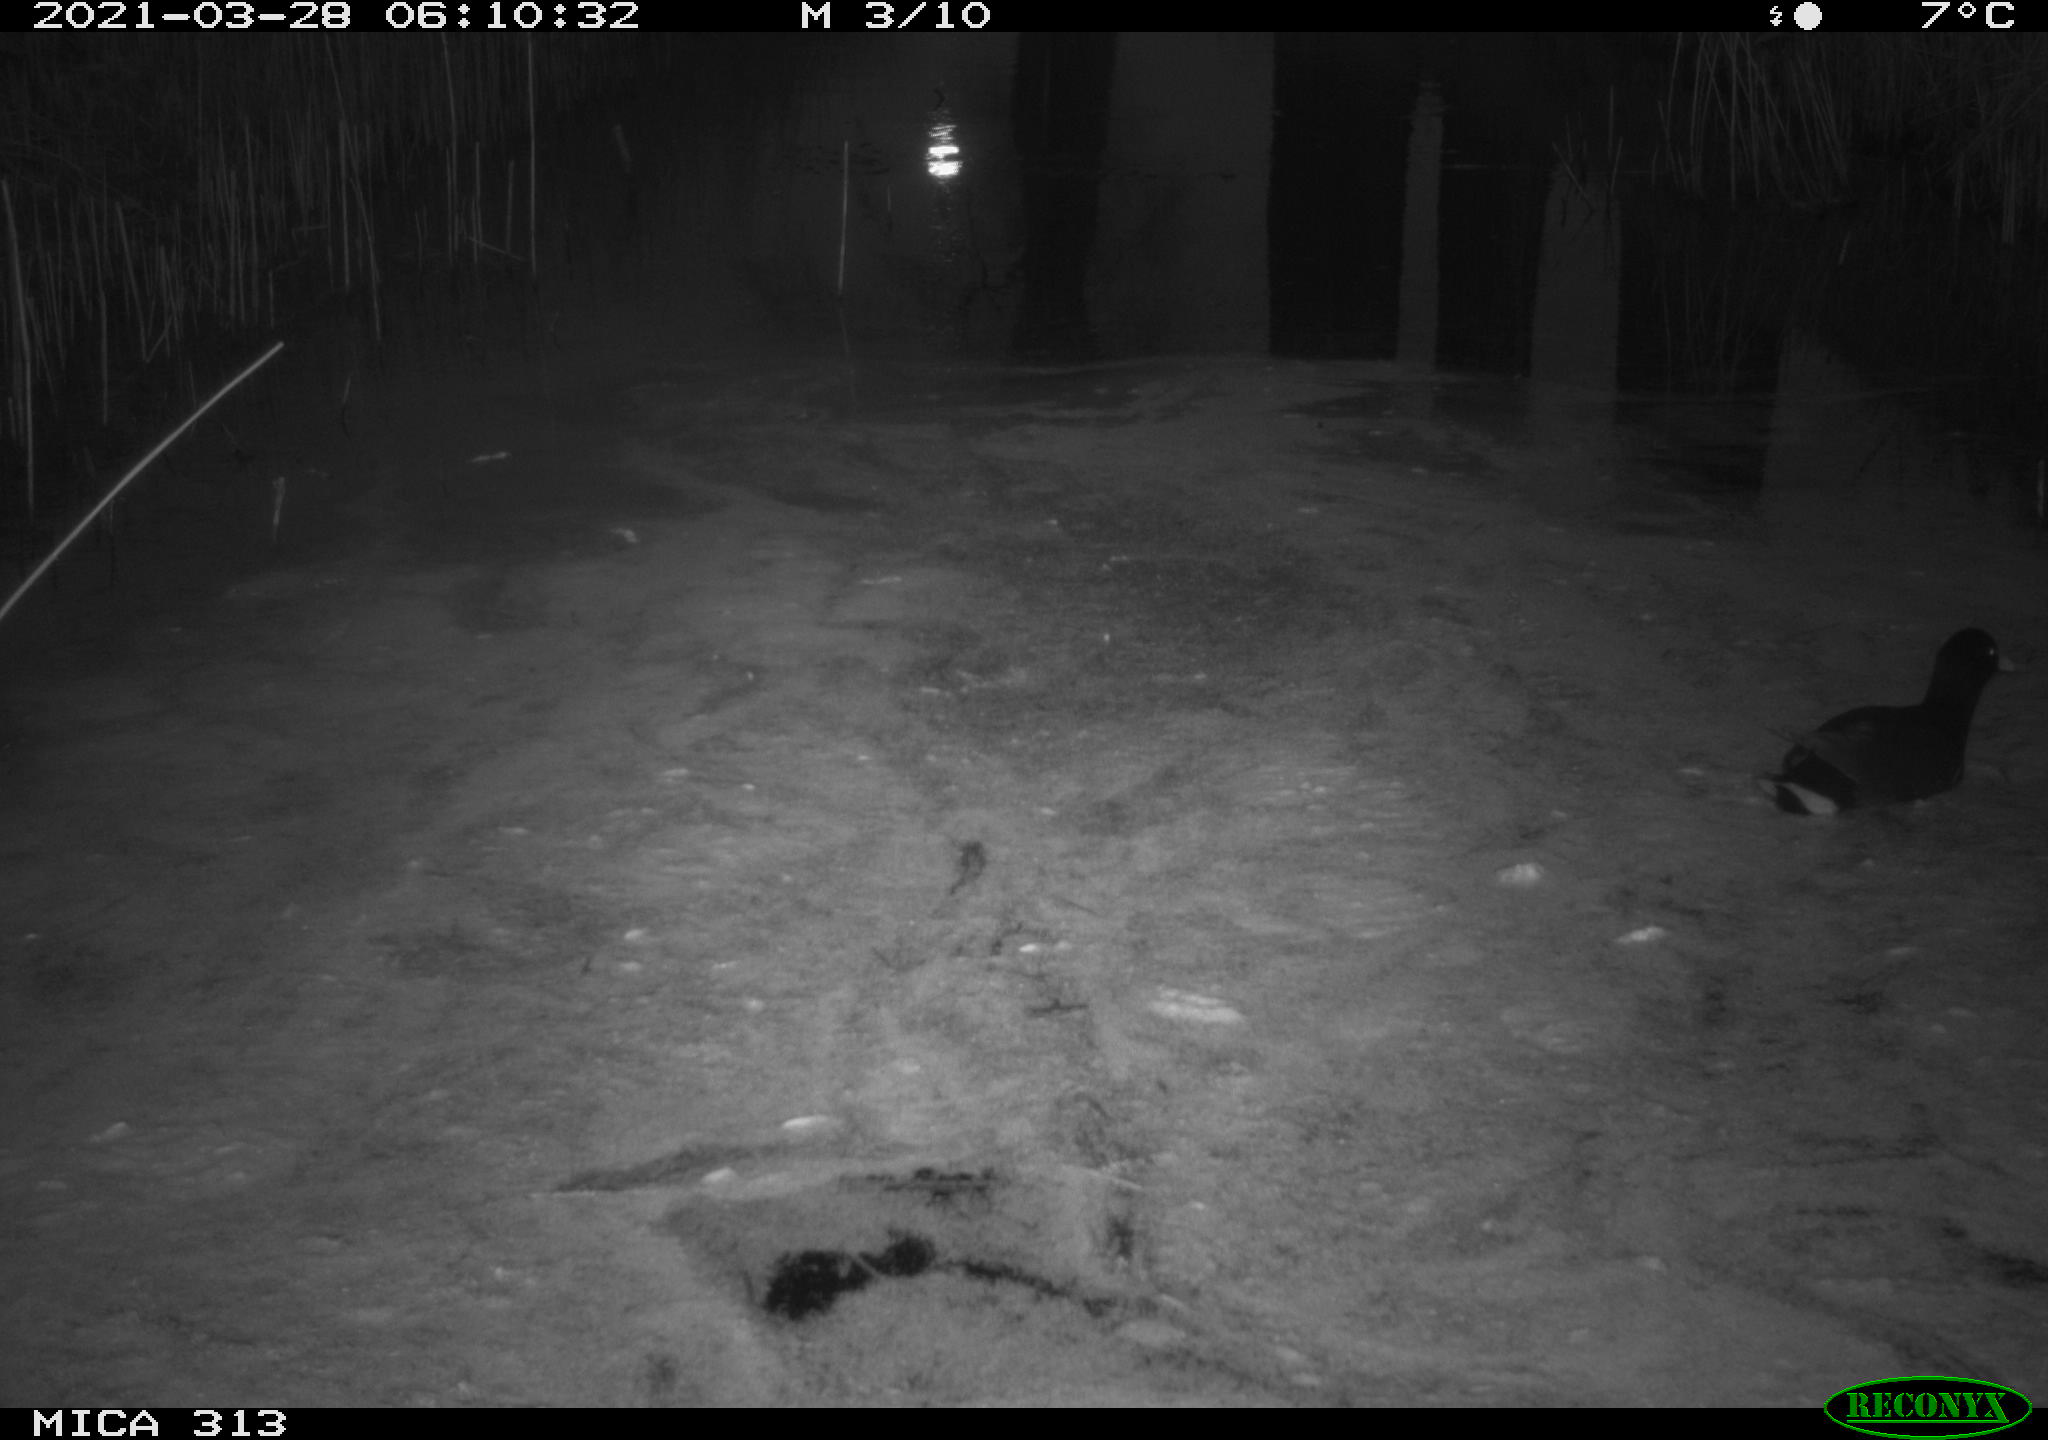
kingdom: Animalia
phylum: Chordata
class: Aves
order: Gruiformes
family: Rallidae
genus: Gallinula
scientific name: Gallinula chloropus
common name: Common moorhen
